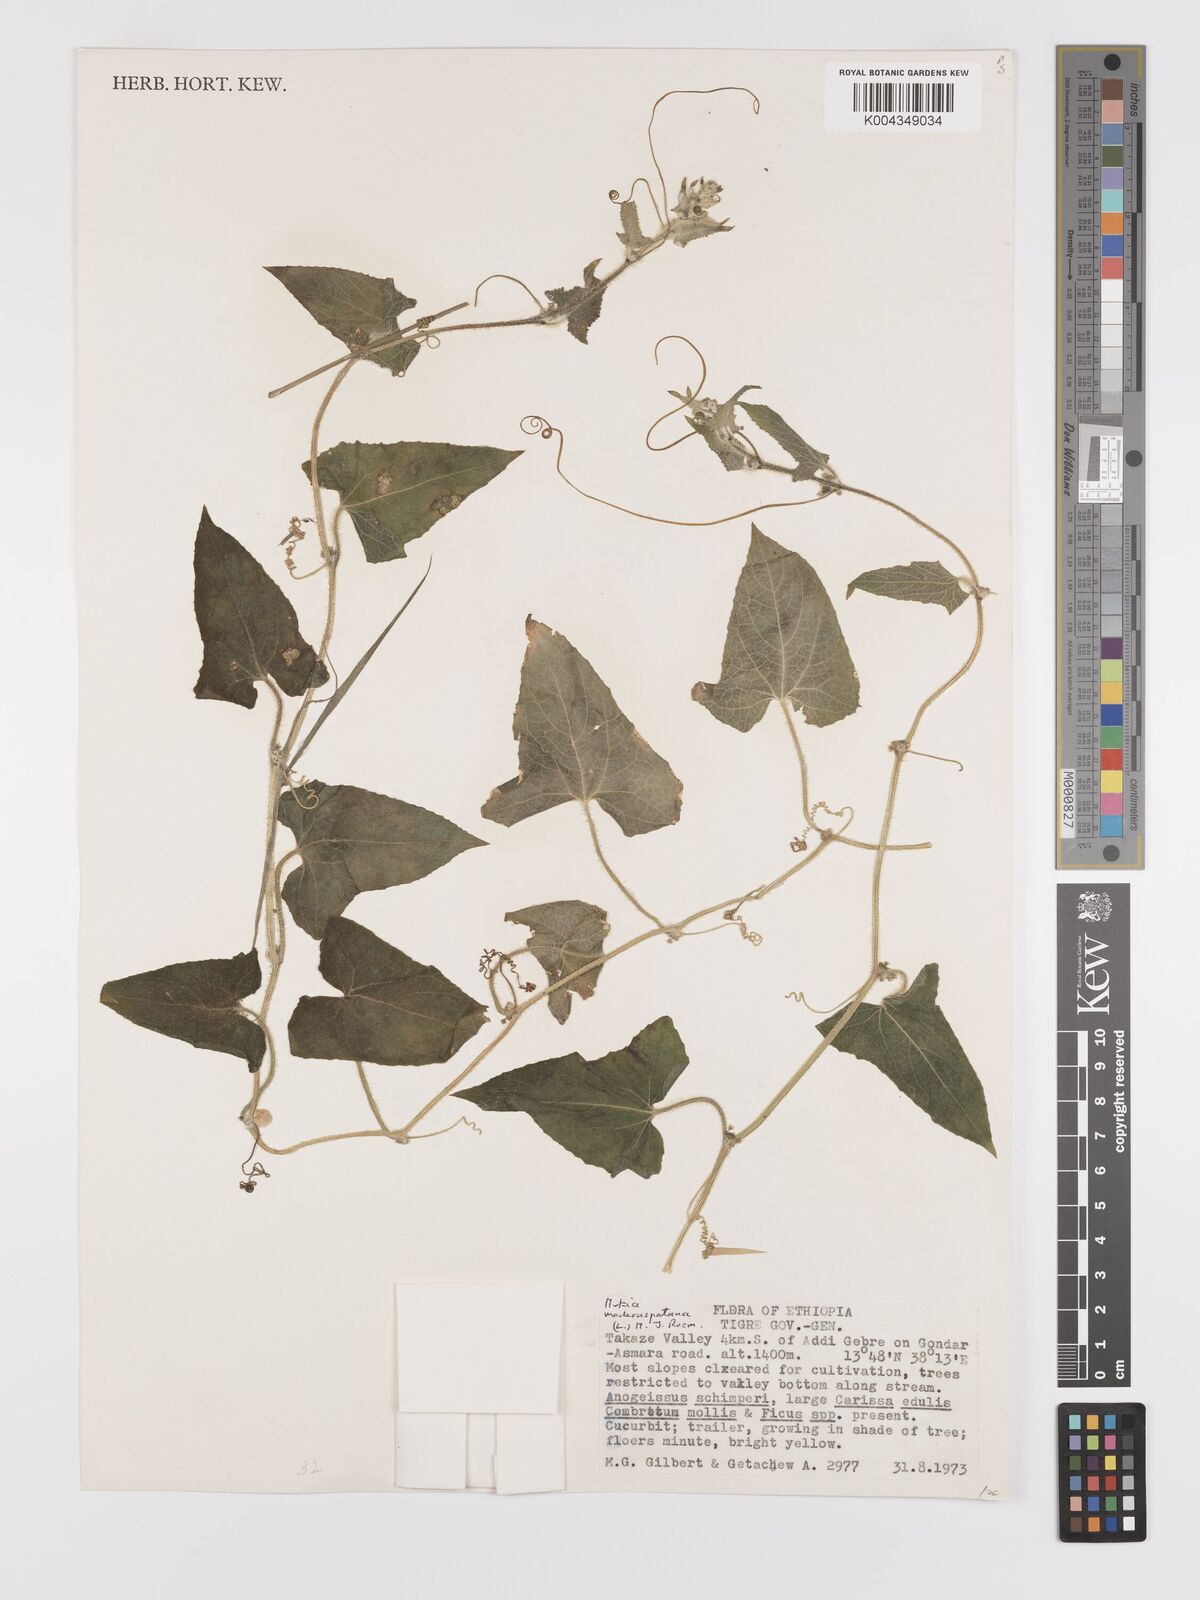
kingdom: Plantae
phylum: Tracheophyta
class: Magnoliopsida
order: Cucurbitales
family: Cucurbitaceae
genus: Cucumis
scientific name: Cucumis maderaspatanus
